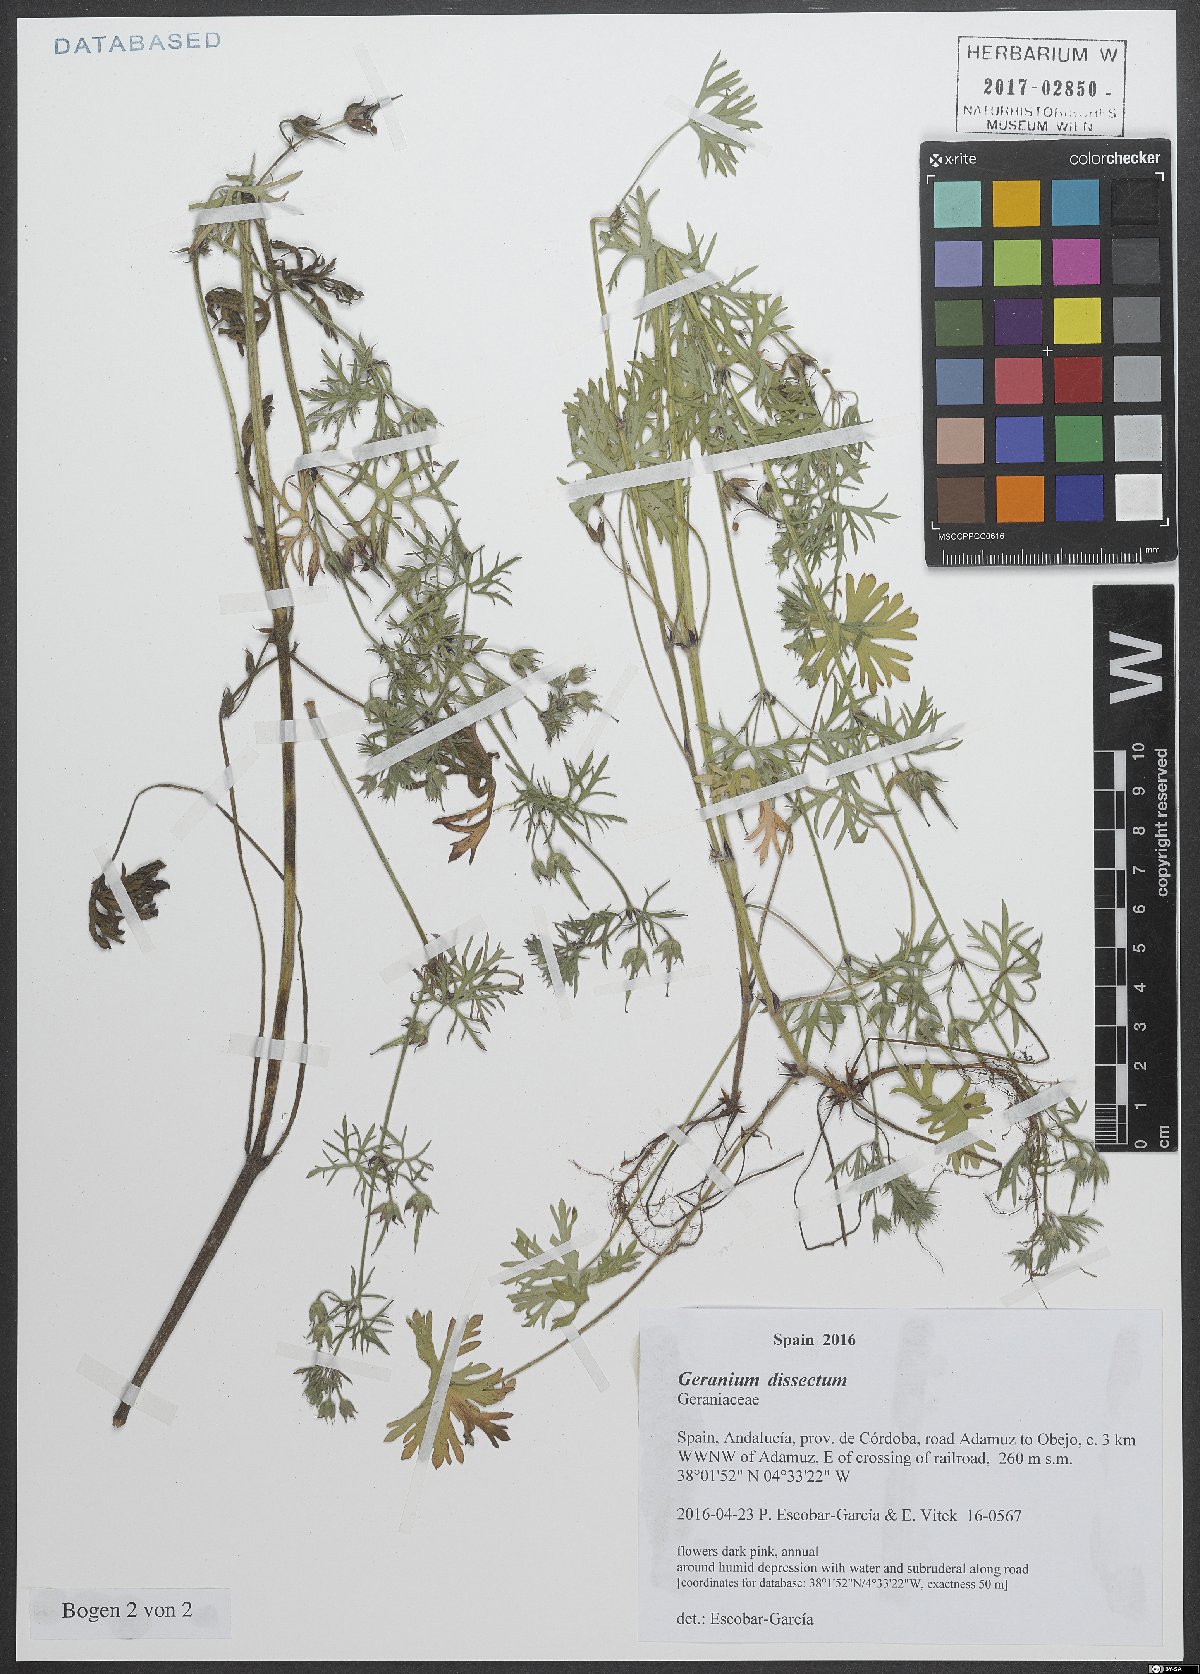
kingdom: Plantae
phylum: Tracheophyta
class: Magnoliopsida
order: Geraniales
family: Geraniaceae
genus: Geranium
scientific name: Geranium dissectum
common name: Cut-leaved crane's-bill
